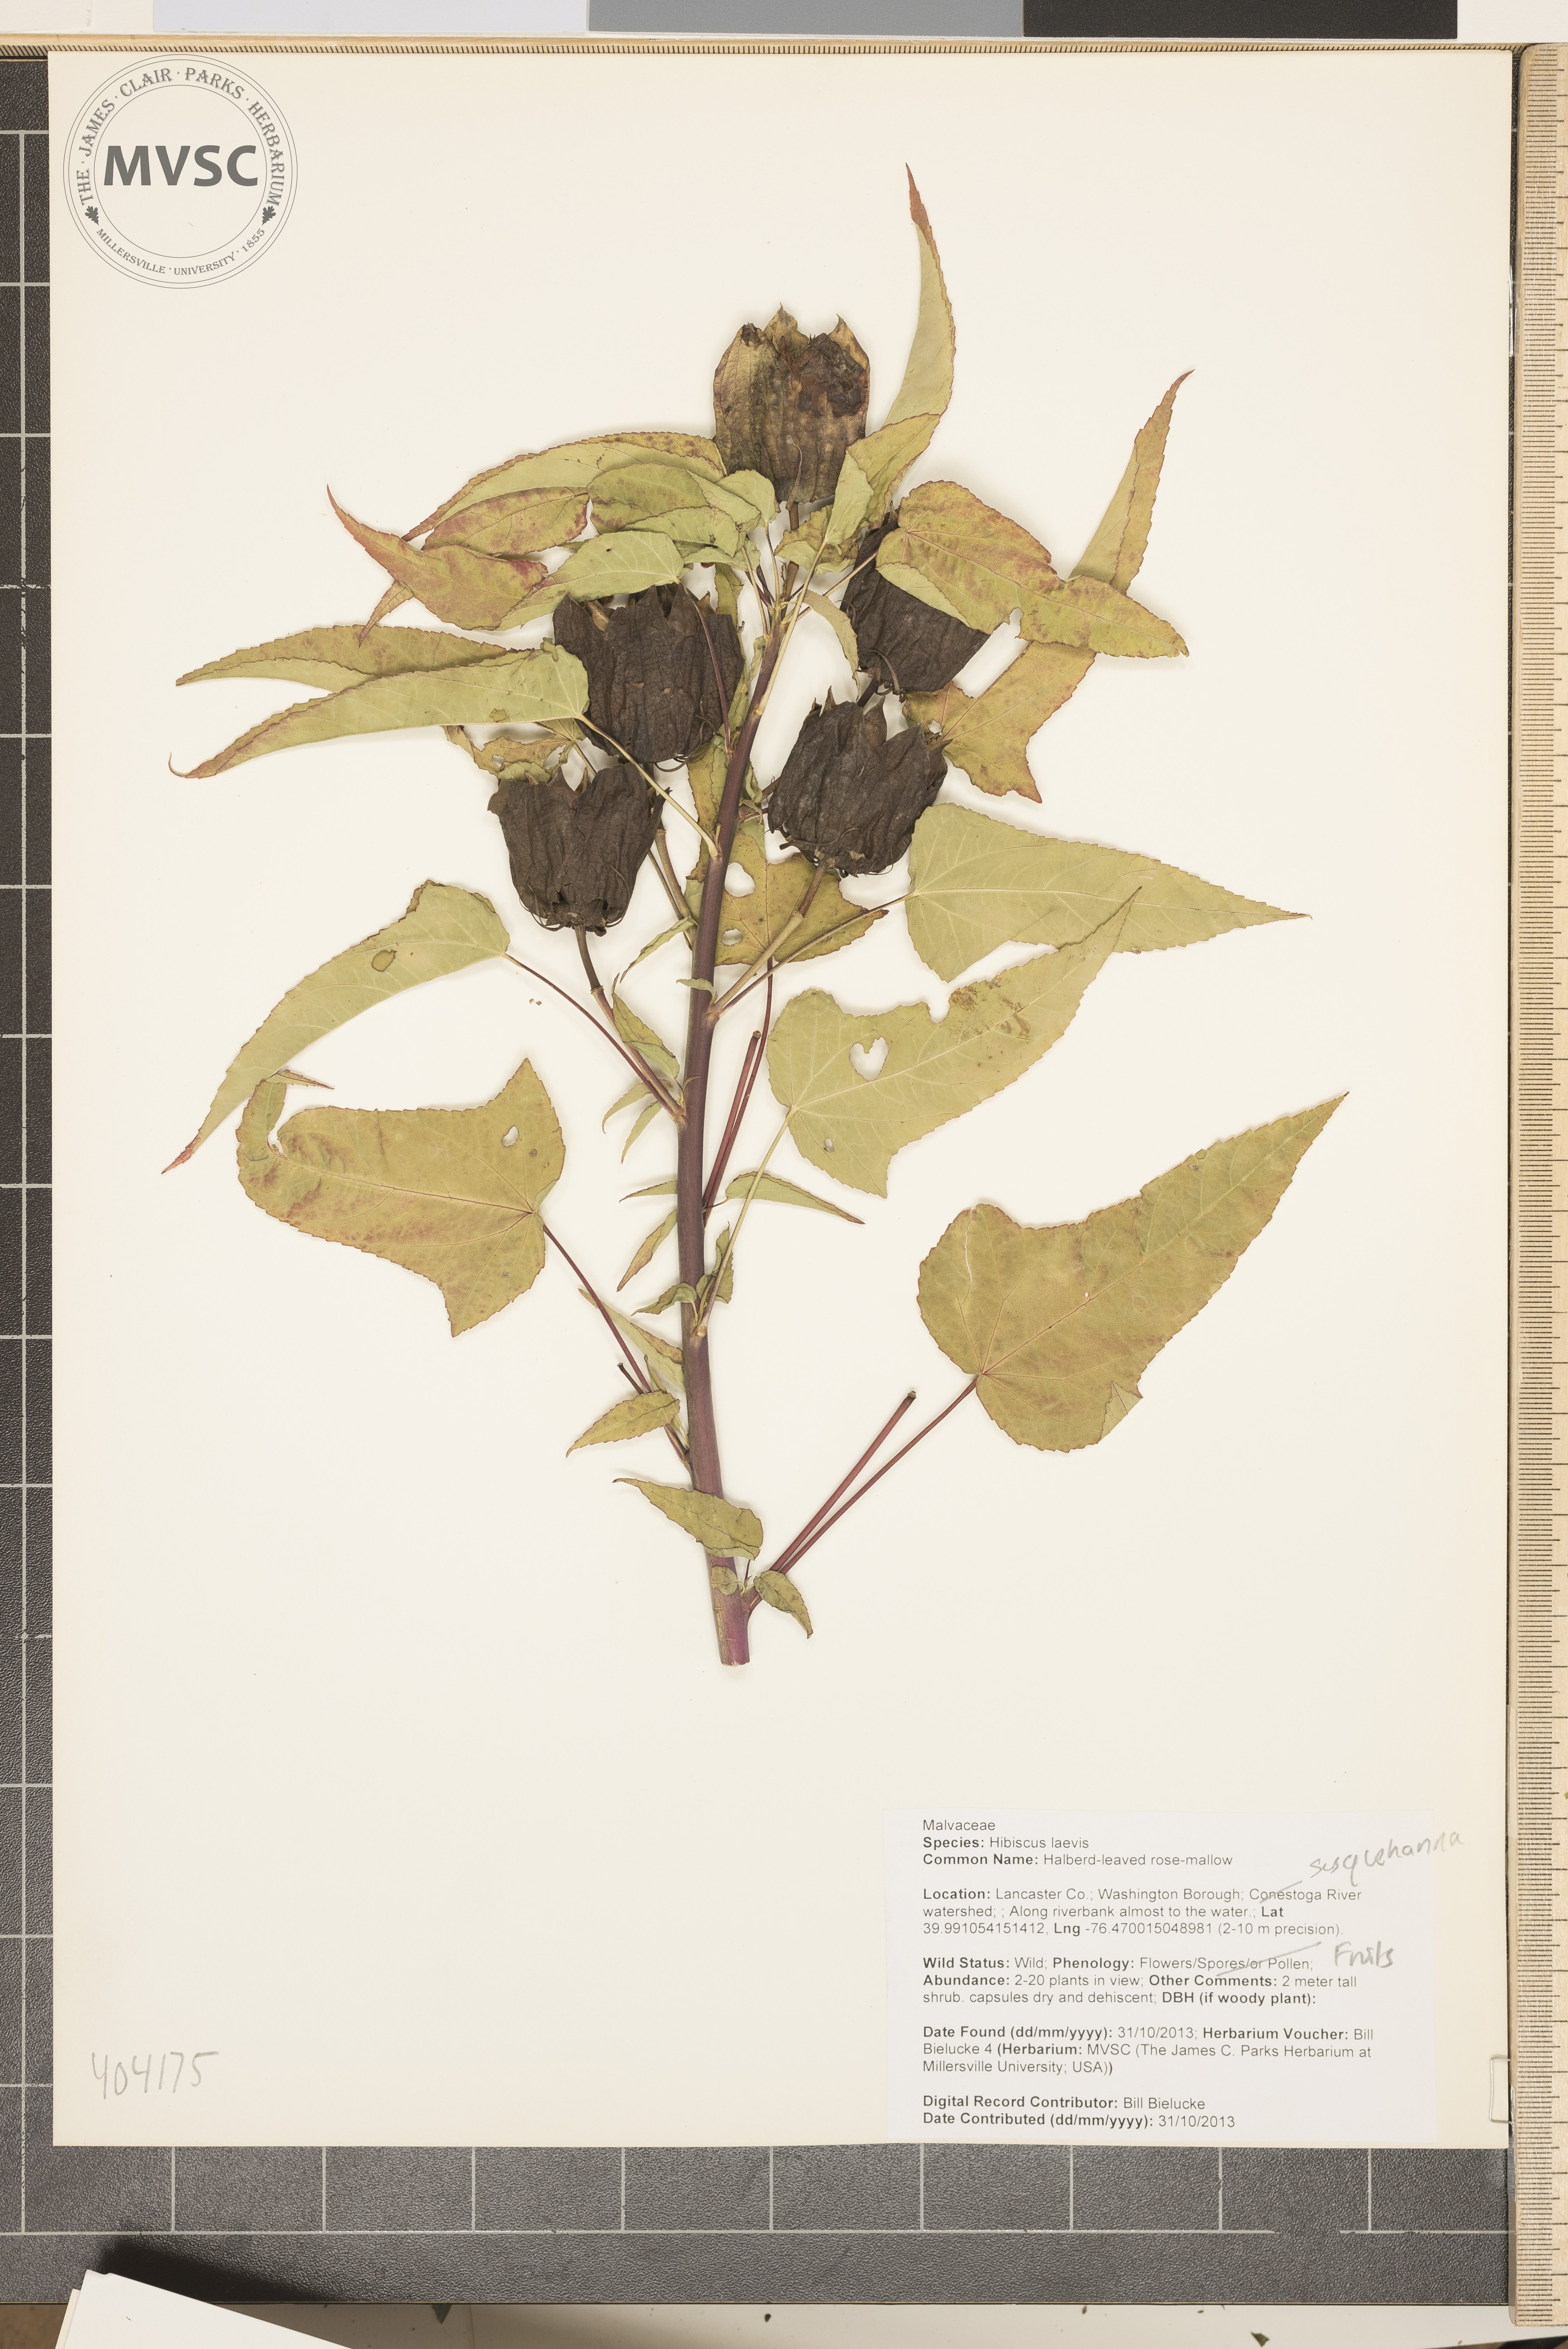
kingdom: Plantae
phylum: Tracheophyta
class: Magnoliopsida
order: Malvales
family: Malvaceae
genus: Hibiscus
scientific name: Hibiscus laevis
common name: Halberd-leaved rose-mallow
